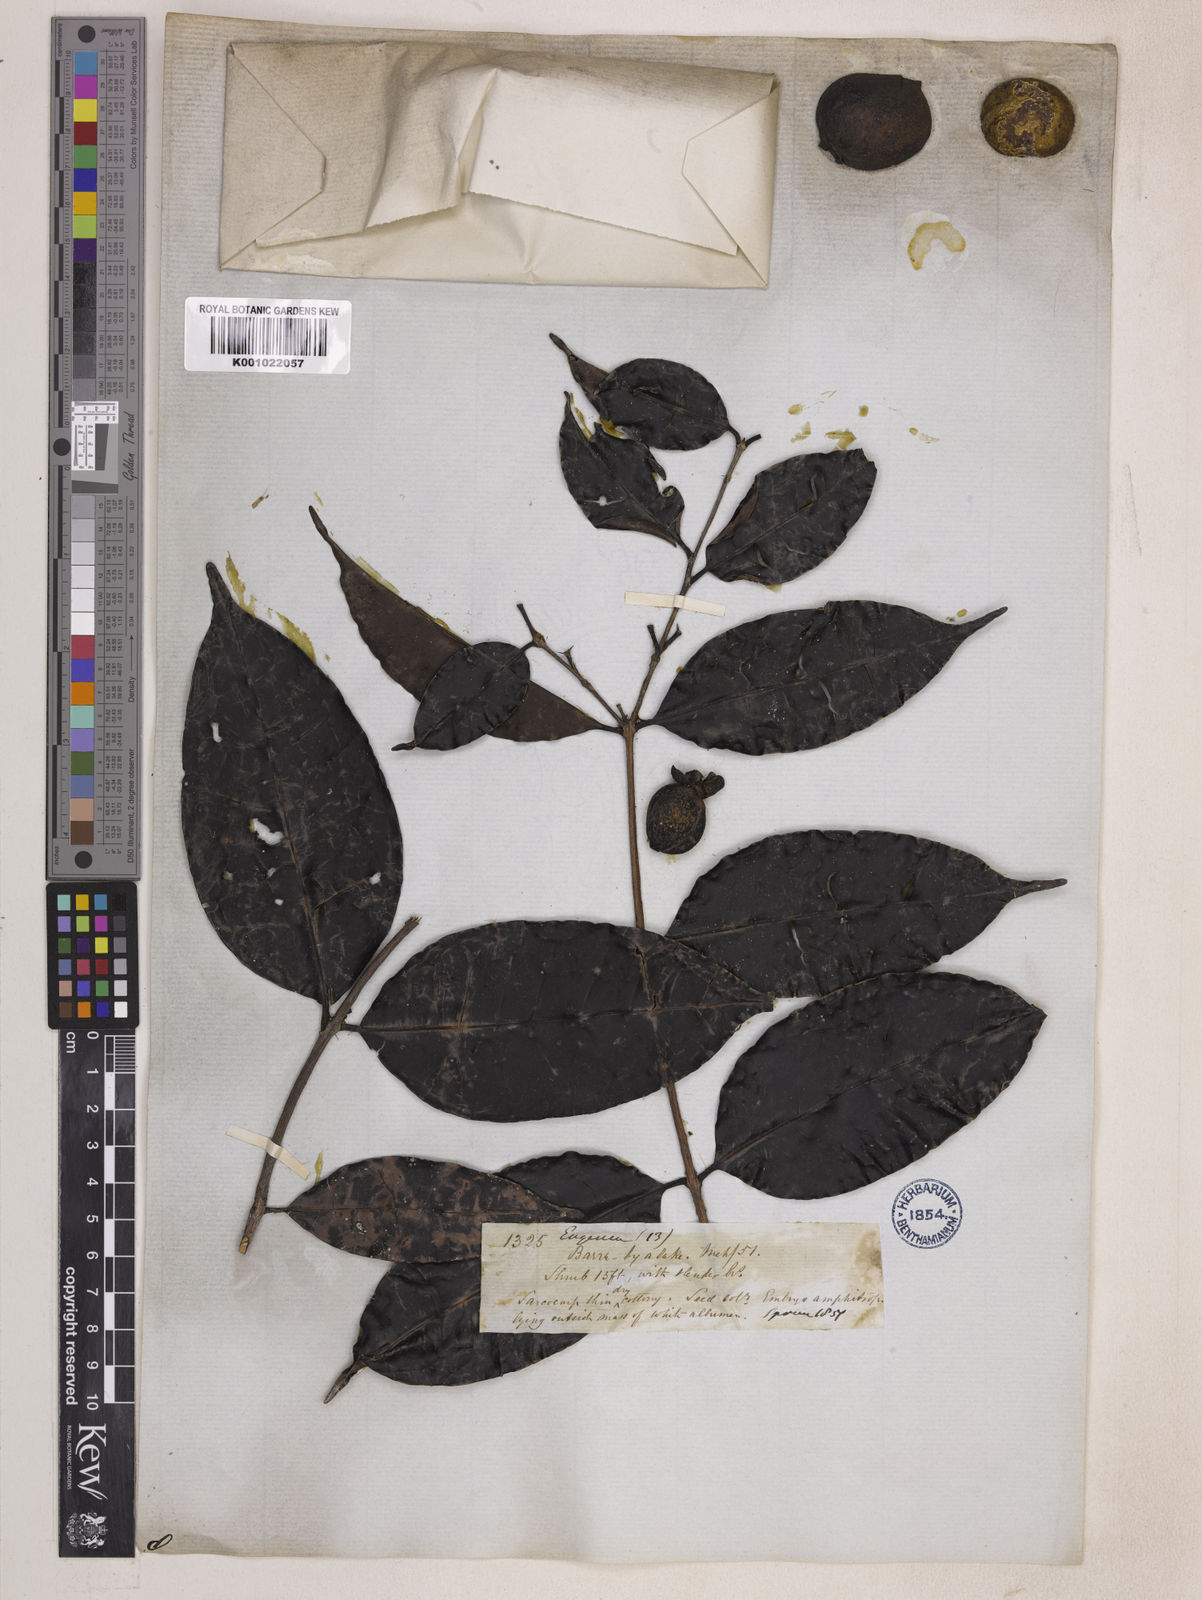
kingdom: Plantae
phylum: Tracheophyta
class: Magnoliopsida
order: Myrtales
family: Myrtaceae
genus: Eugenia
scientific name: Eugenia moschata
